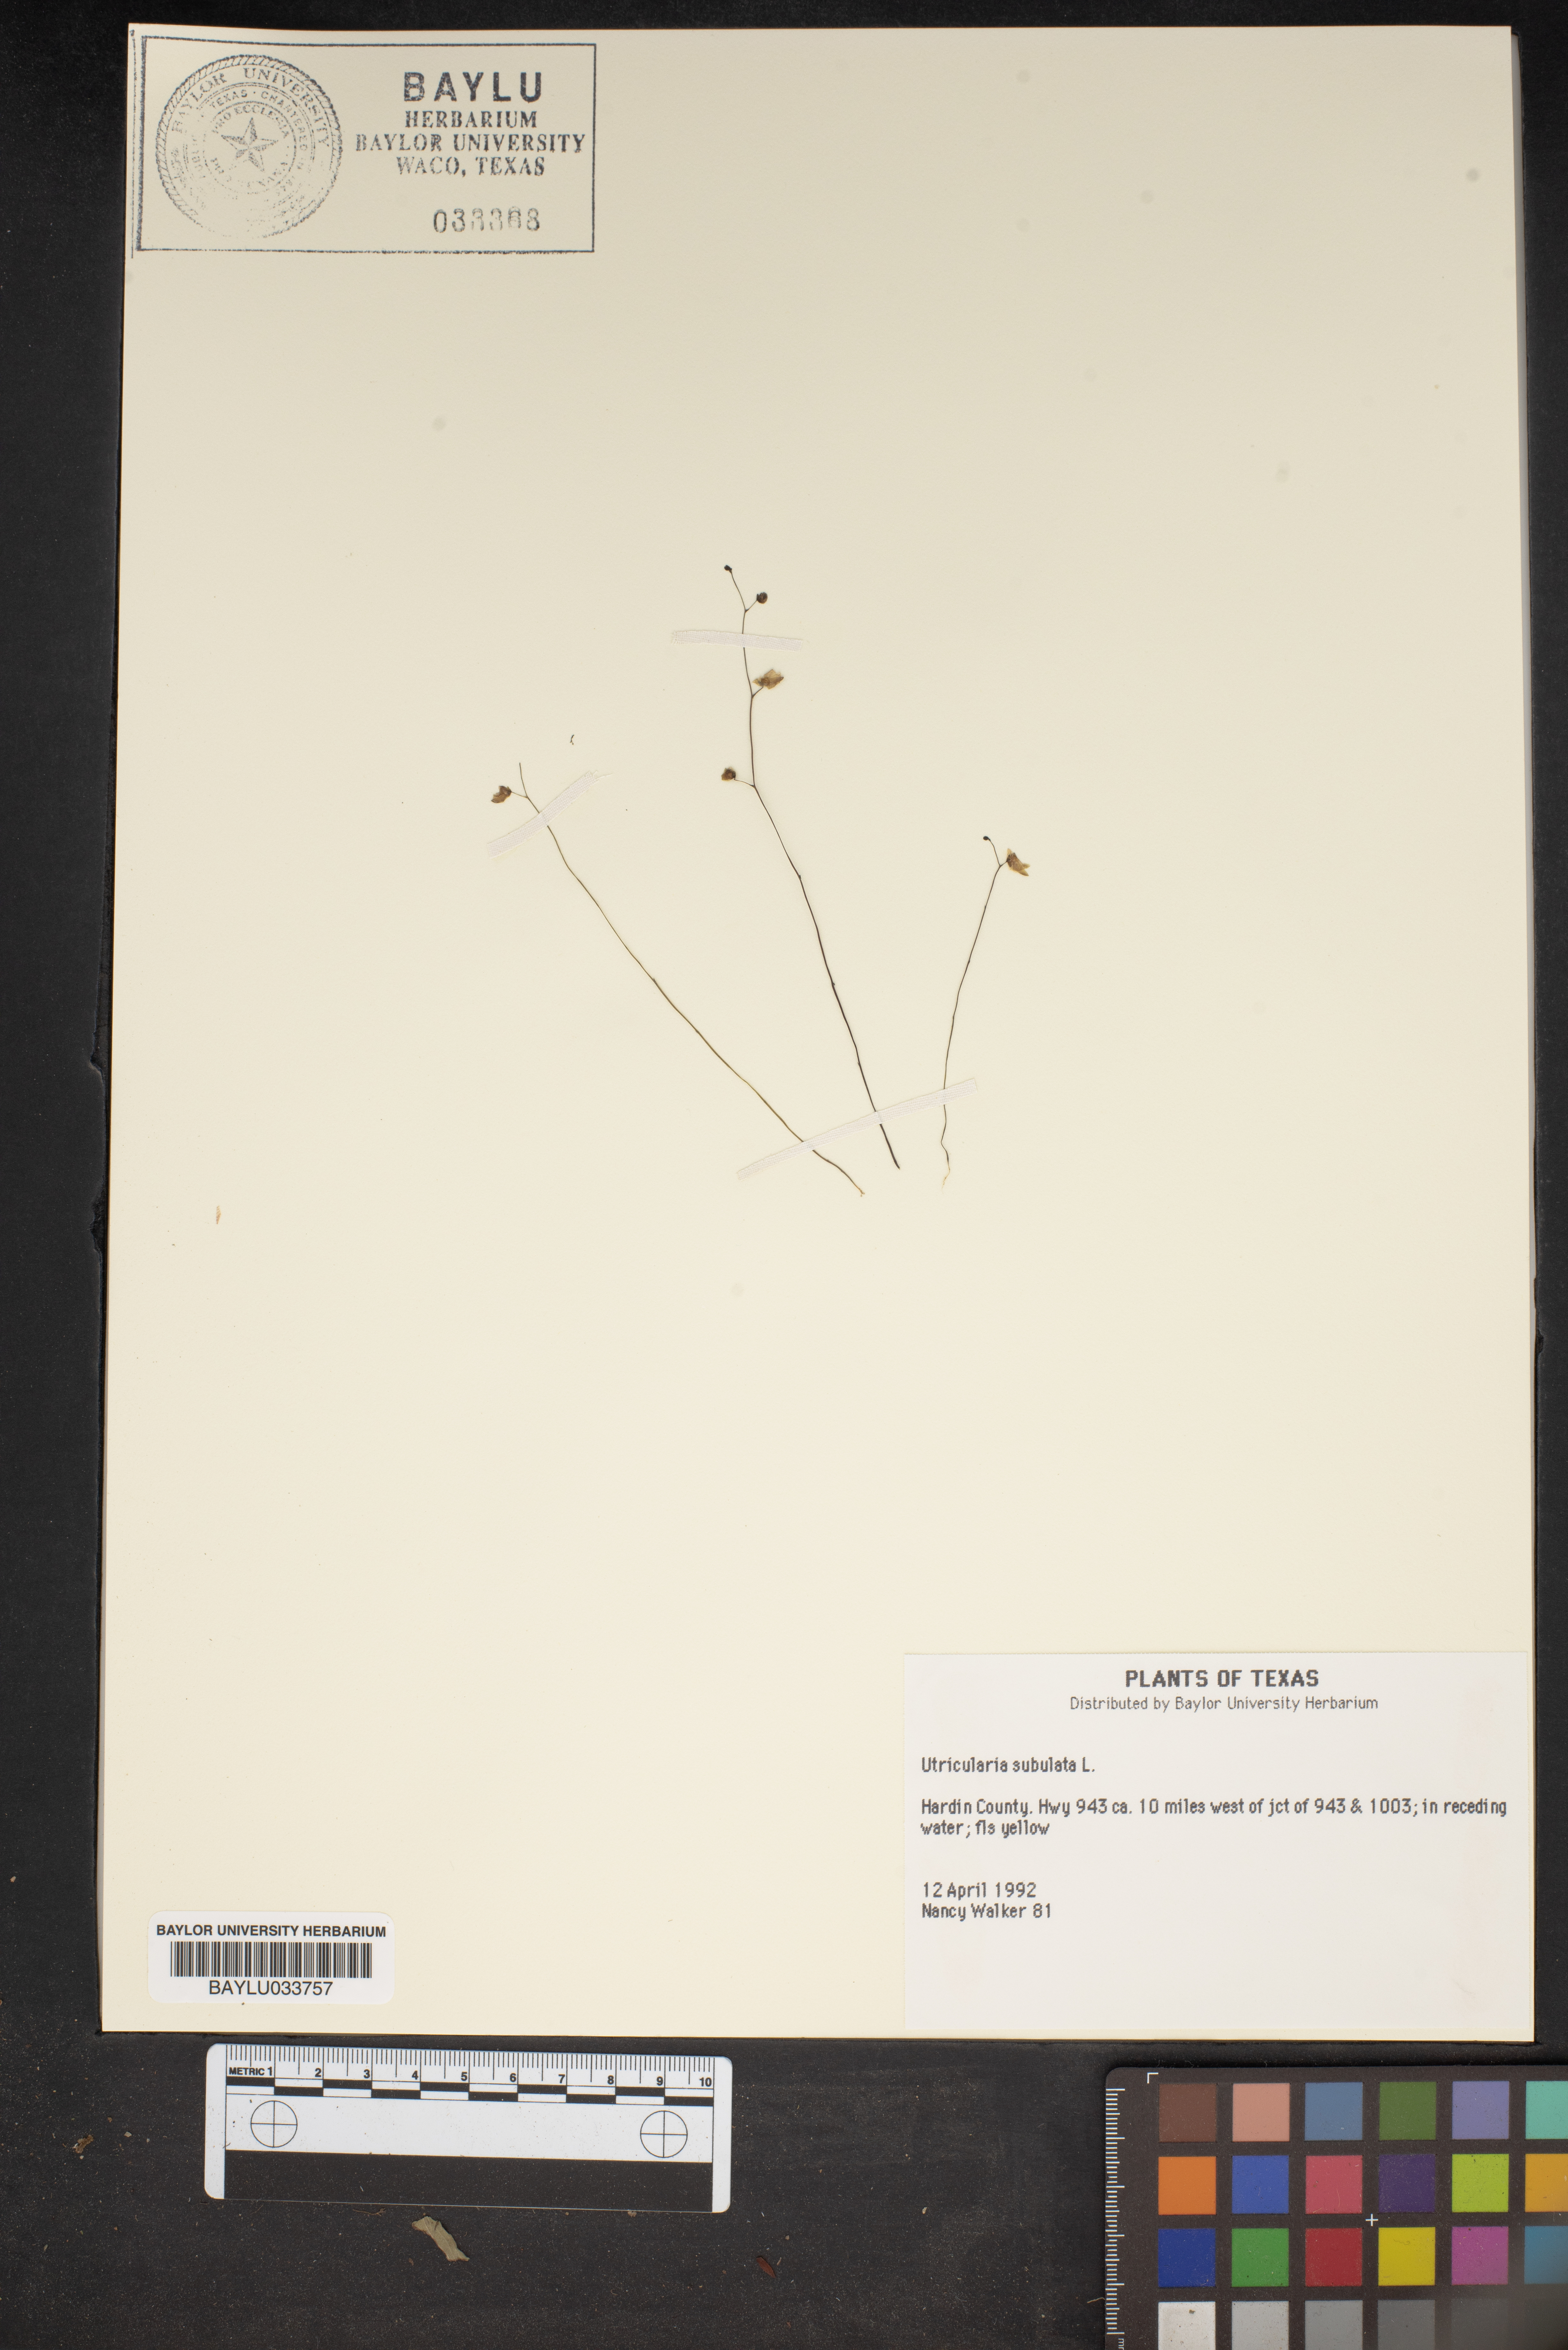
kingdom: Plantae
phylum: Tracheophyta
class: Magnoliopsida
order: Lamiales
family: Lentibulariaceae
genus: Utricularia
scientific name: Utricularia subulata
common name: Tiny bladderwort
